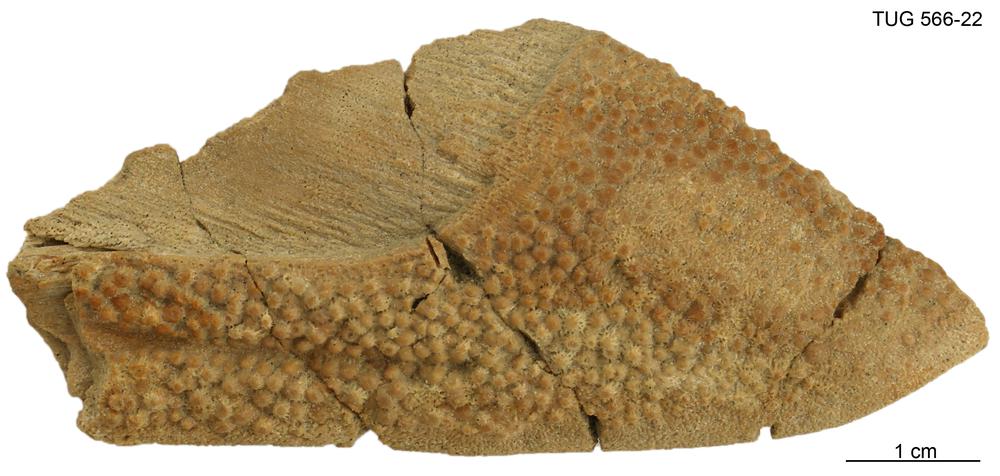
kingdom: Animalia
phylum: Chordata
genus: Homosteus
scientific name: Homosteus sulcatus
